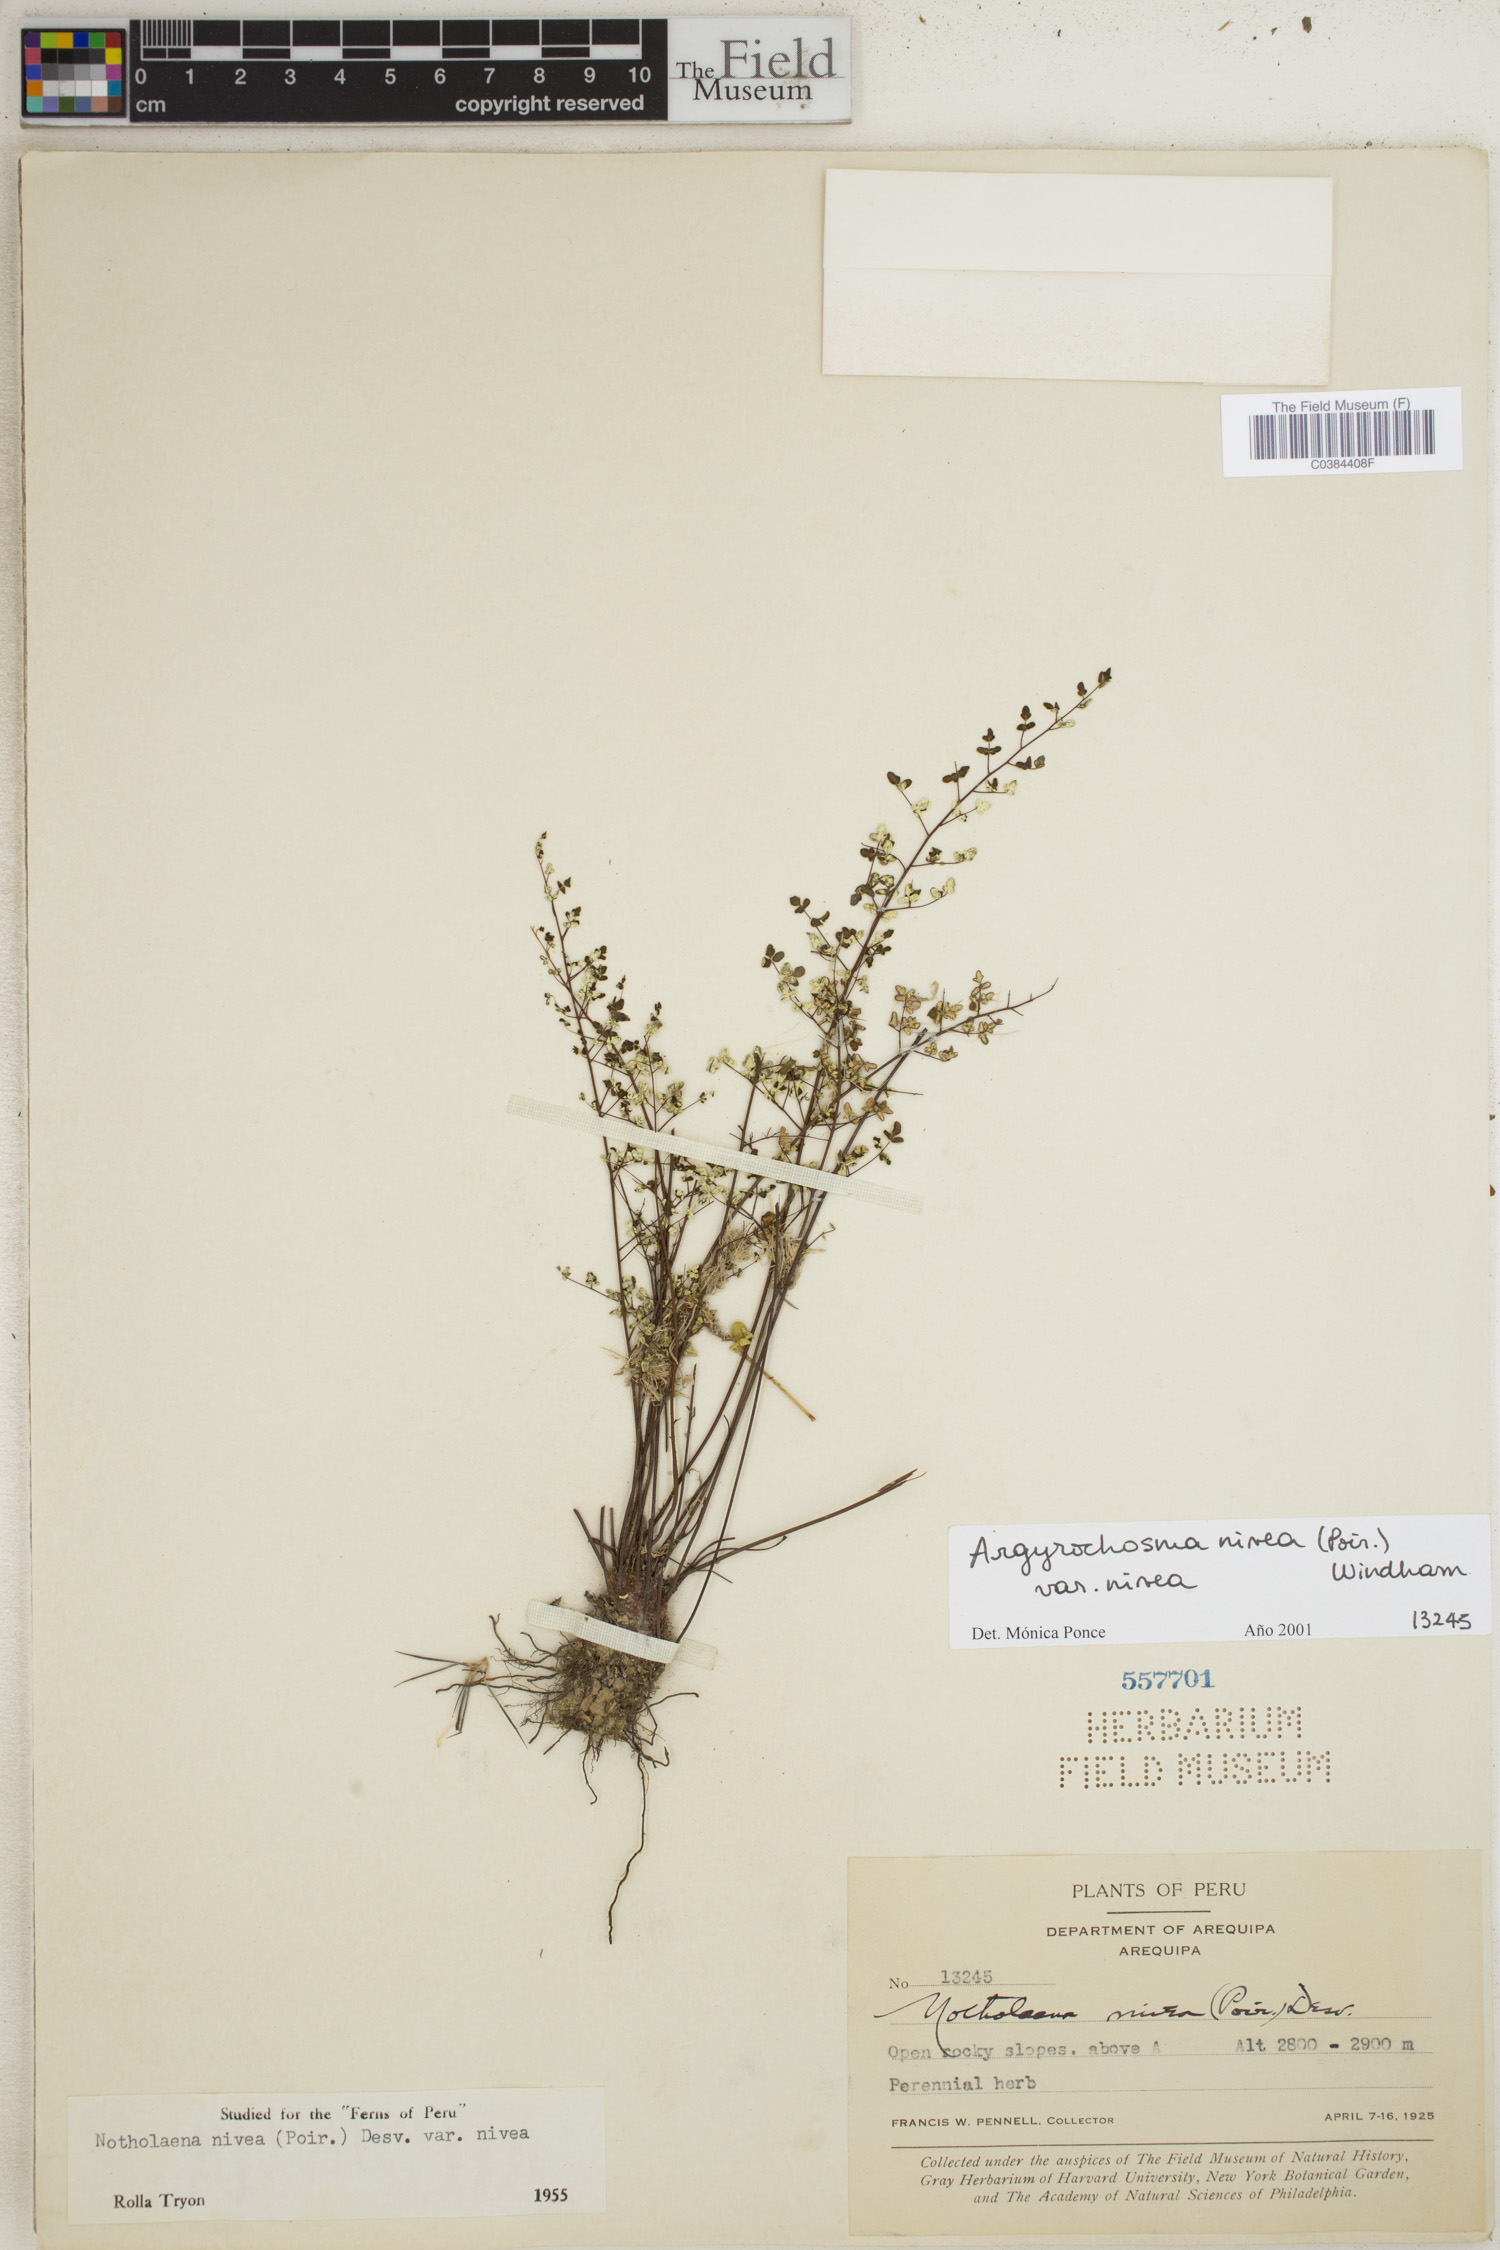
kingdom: Plantae
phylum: Tracheophyta
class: Polypodiopsida
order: Polypodiales
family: Pteridaceae
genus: Argyrochosma
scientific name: Argyrochosma nivea
